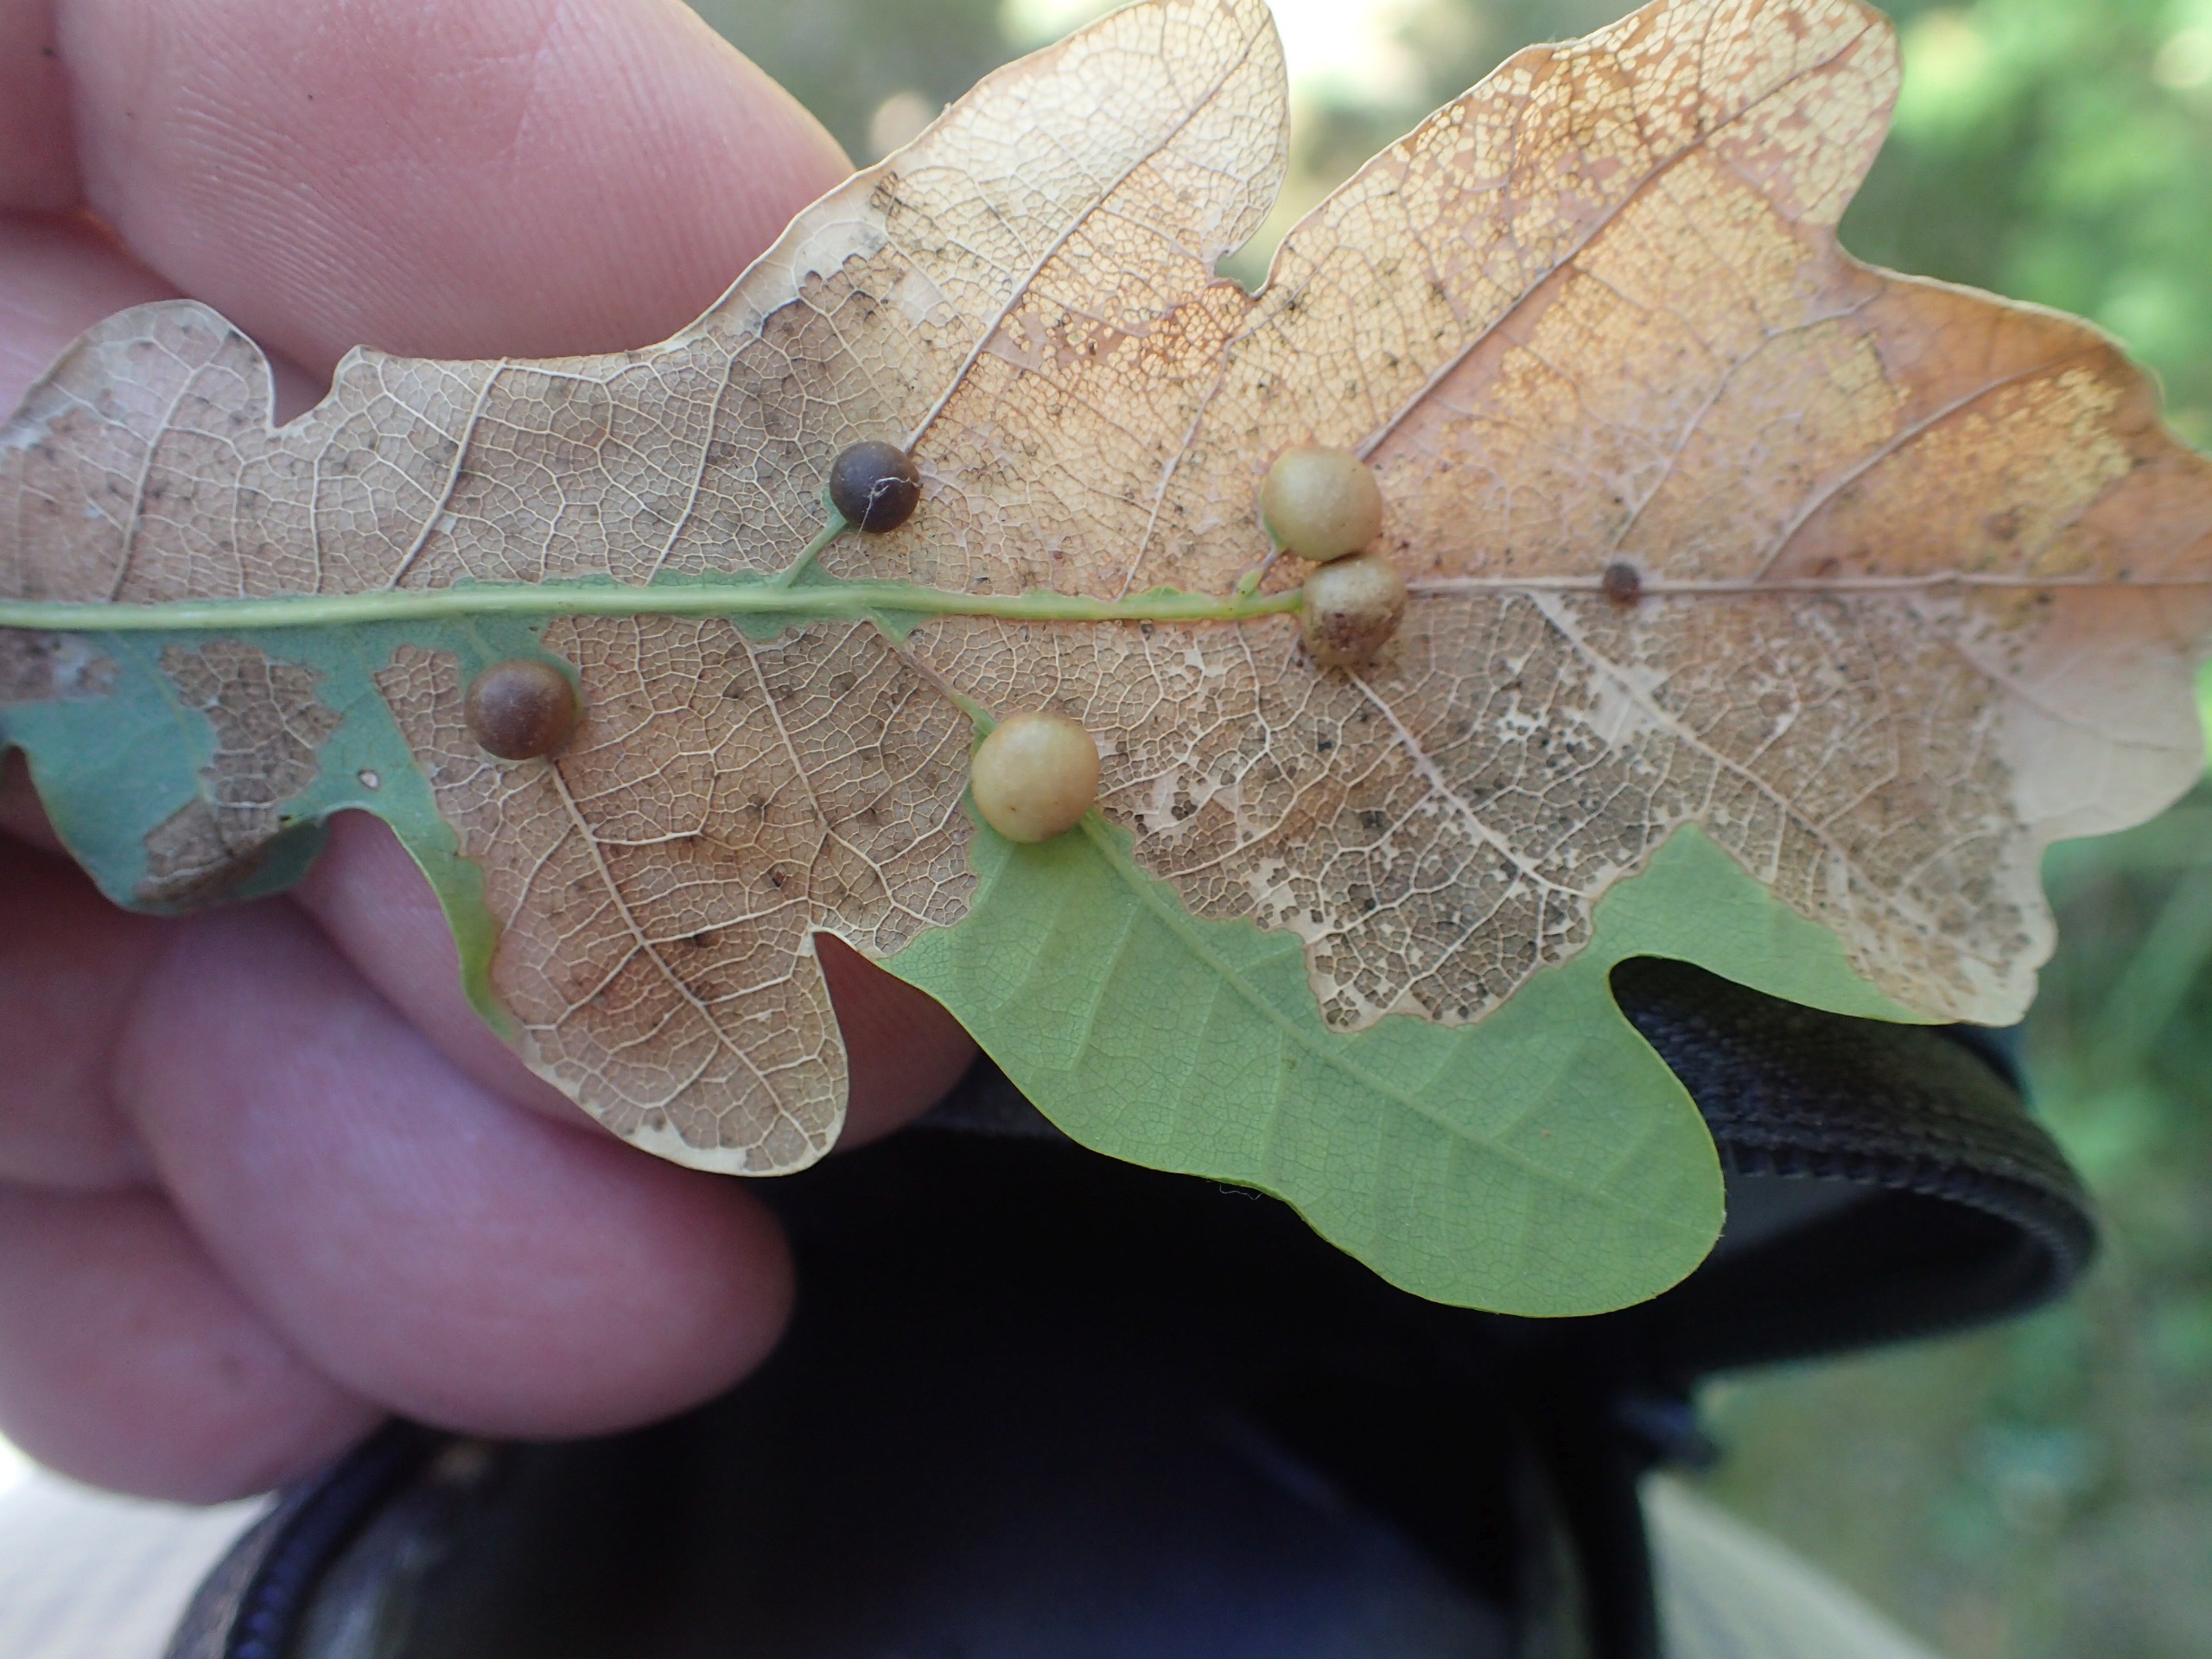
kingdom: Plantae
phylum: Tracheophyta
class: Magnoliopsida
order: Fagales
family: Fagaceae
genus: Quercus
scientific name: Quercus robur
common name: Stilk-eg/almindelig eg
